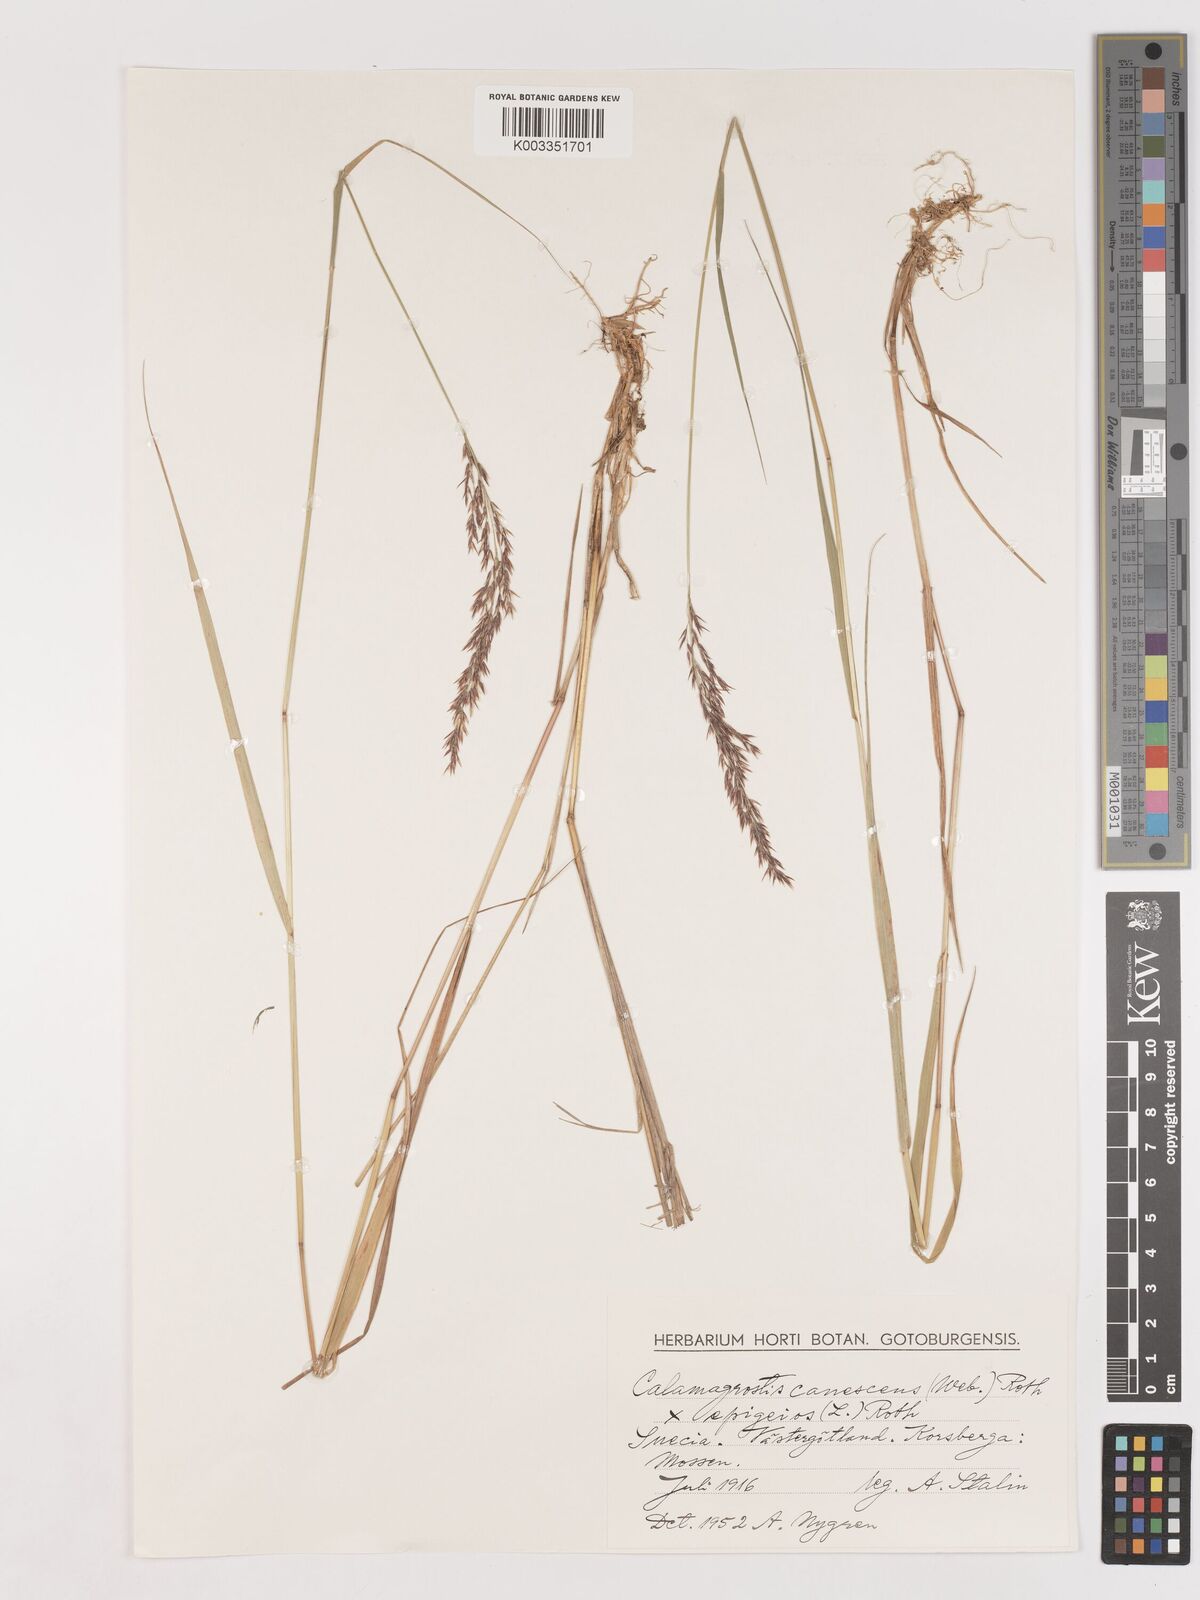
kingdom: Plantae
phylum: Tracheophyta
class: Liliopsida
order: Poales
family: Poaceae
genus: Calamagrostis
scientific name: Calamagrostis canescens
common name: Purple small-reed
